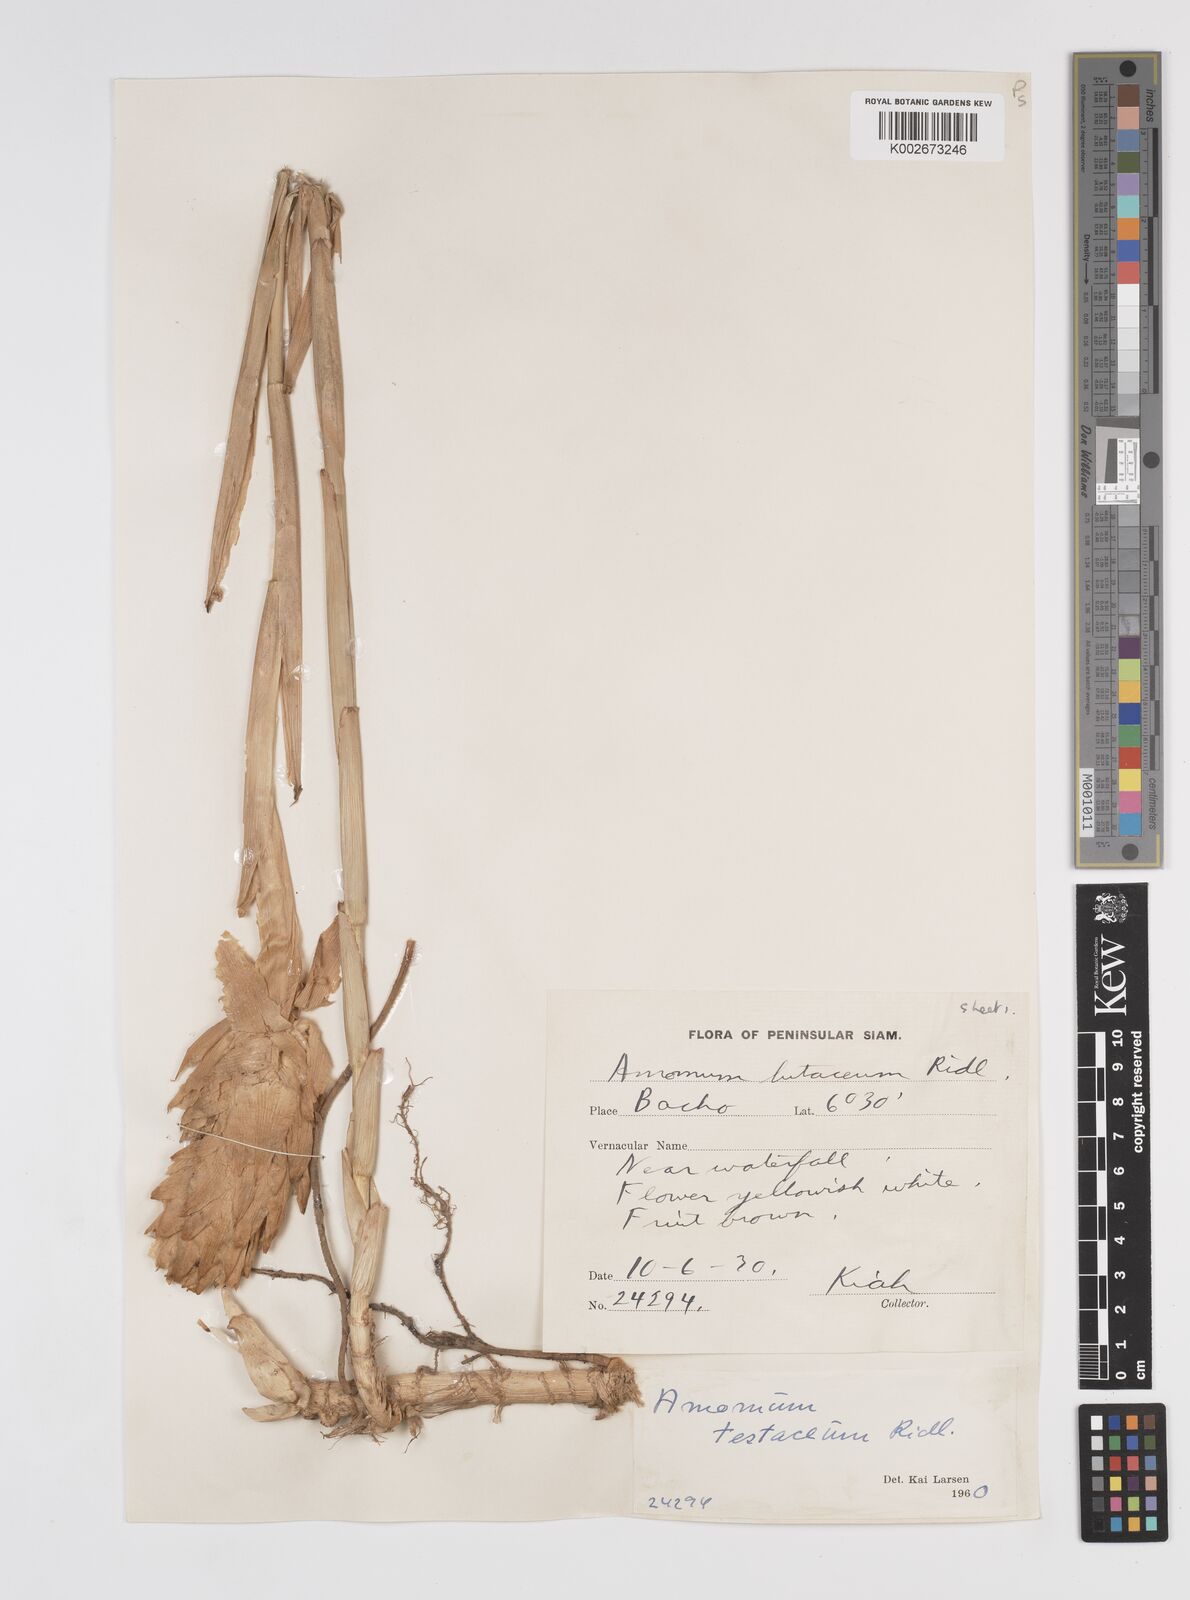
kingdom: Plantae
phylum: Tracheophyta
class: Liliopsida
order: Zingiberales
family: Zingiberaceae
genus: Wurfbainia
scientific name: Wurfbainia testacea
